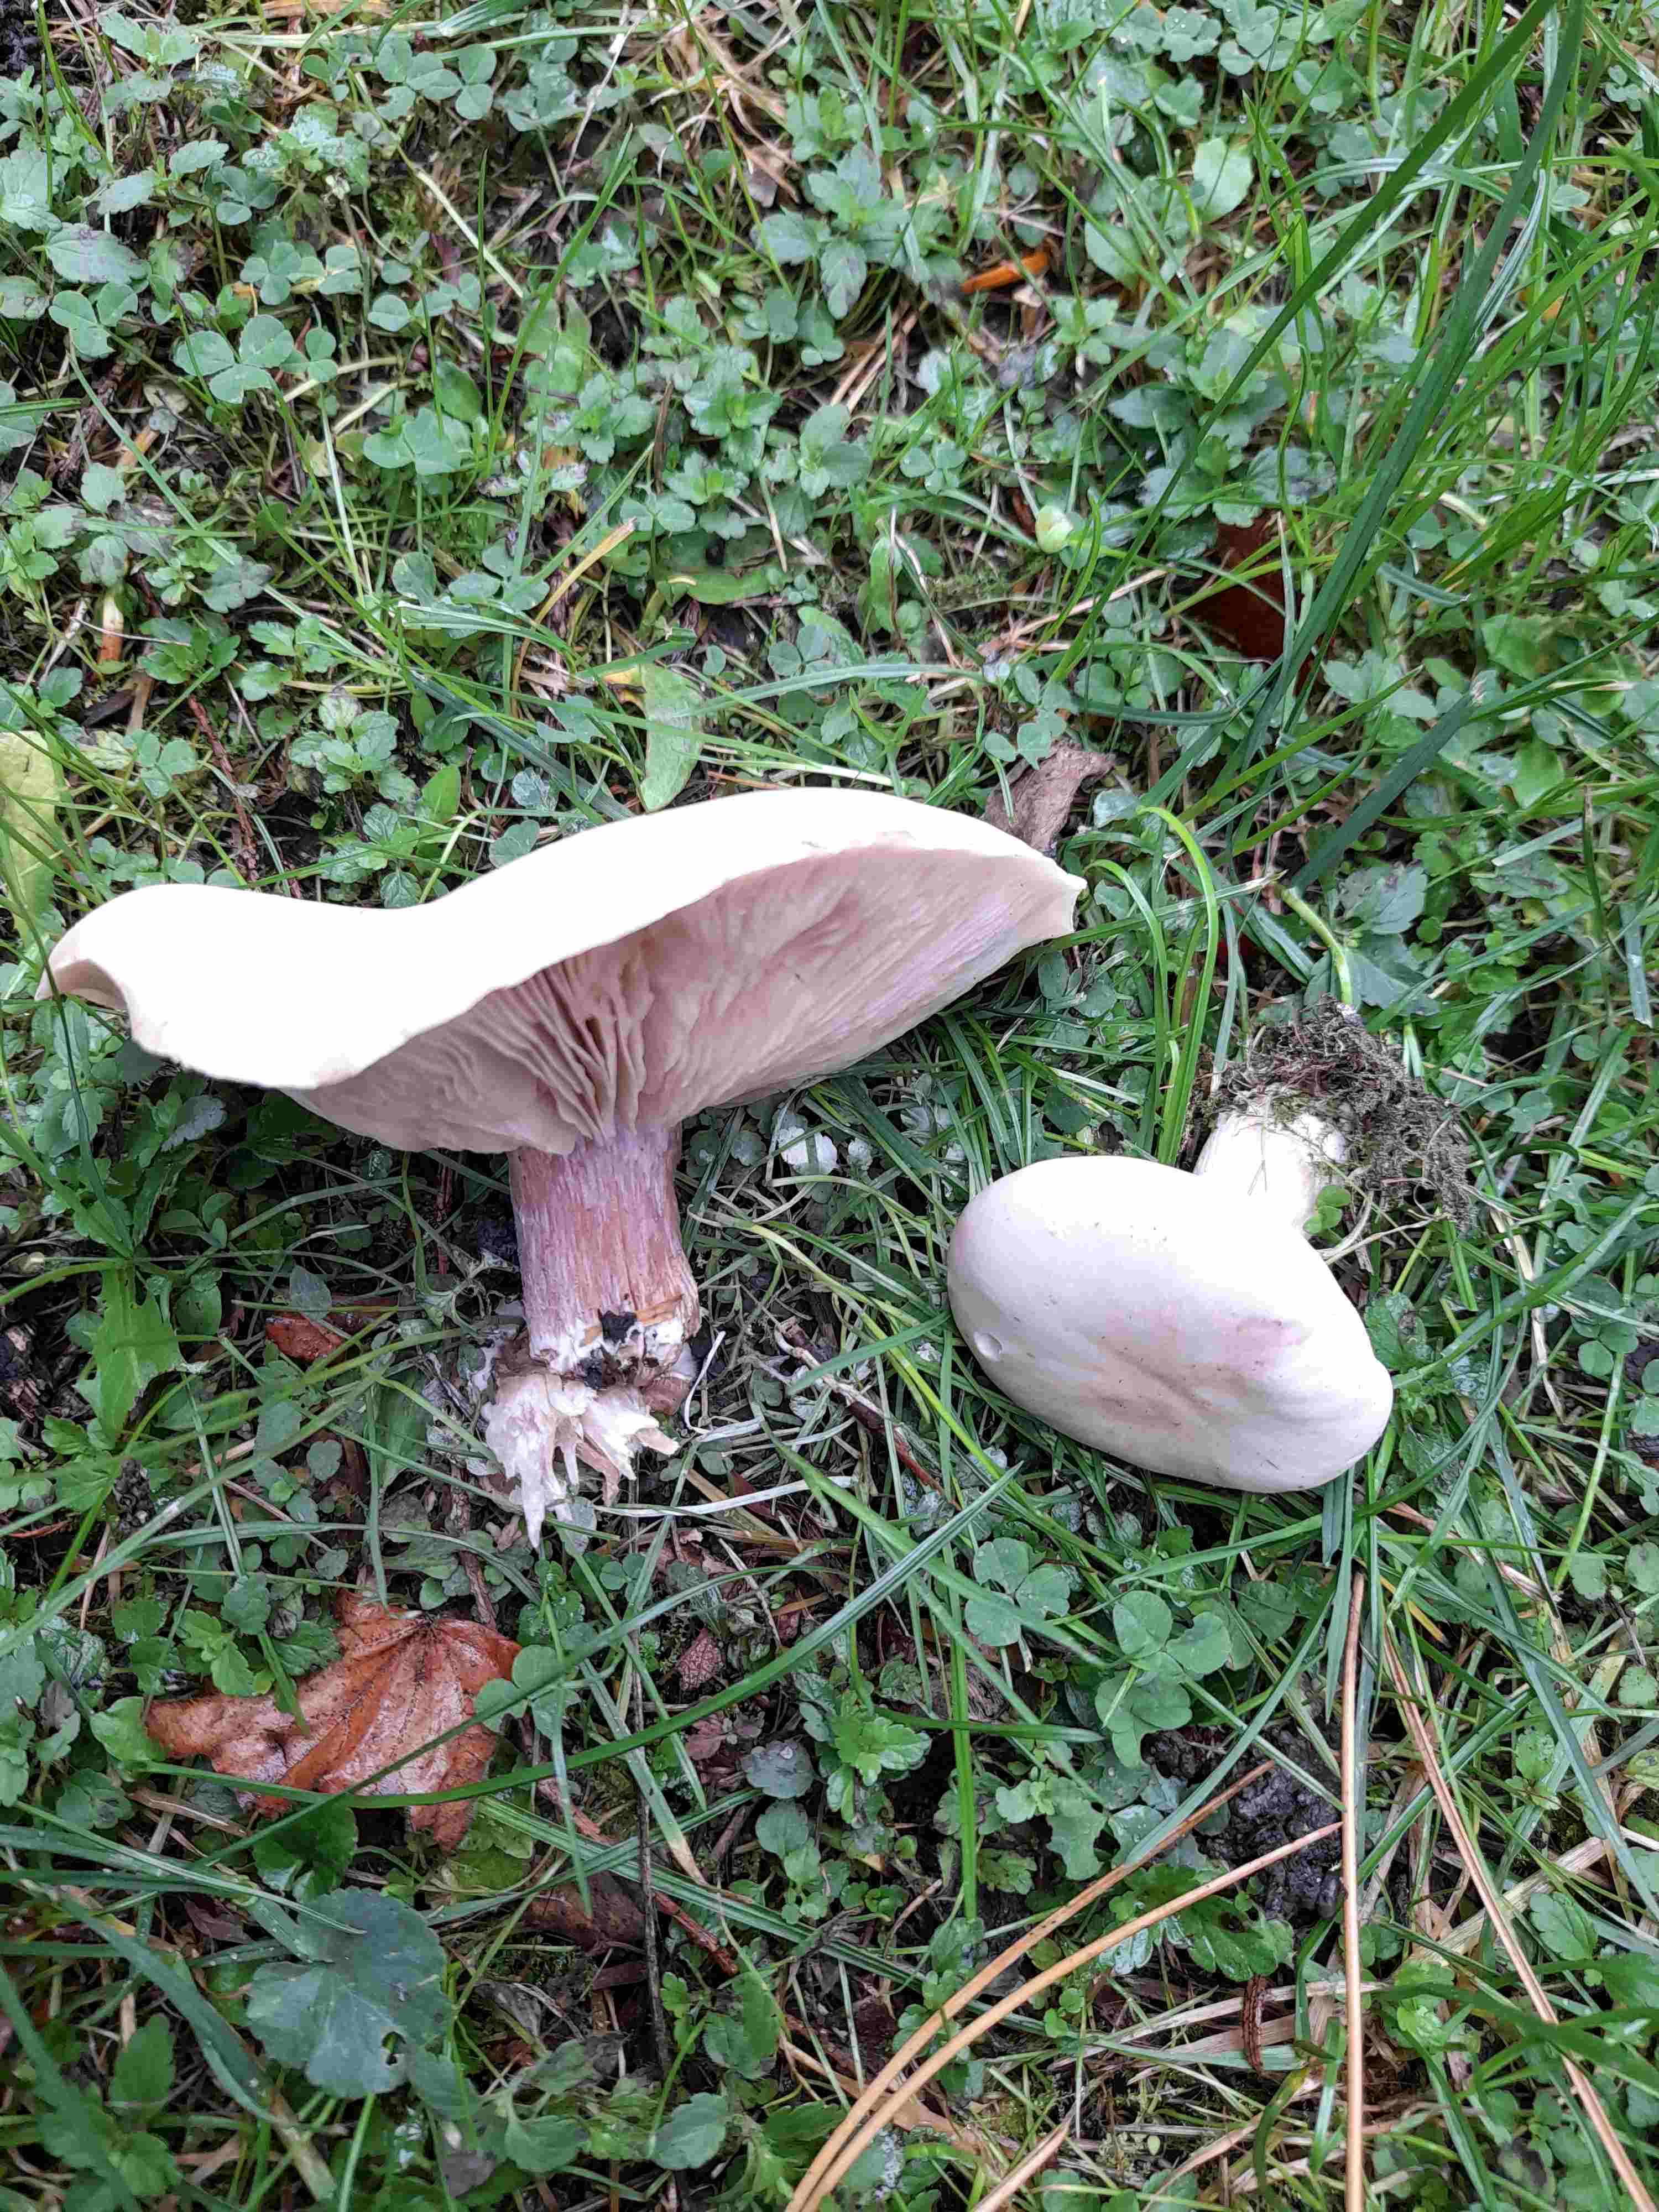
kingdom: Fungi
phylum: Basidiomycota
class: Agaricomycetes
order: Agaricales
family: Tricholomataceae
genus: Lepista
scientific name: Lepista personata
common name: bleg hekseringshat
